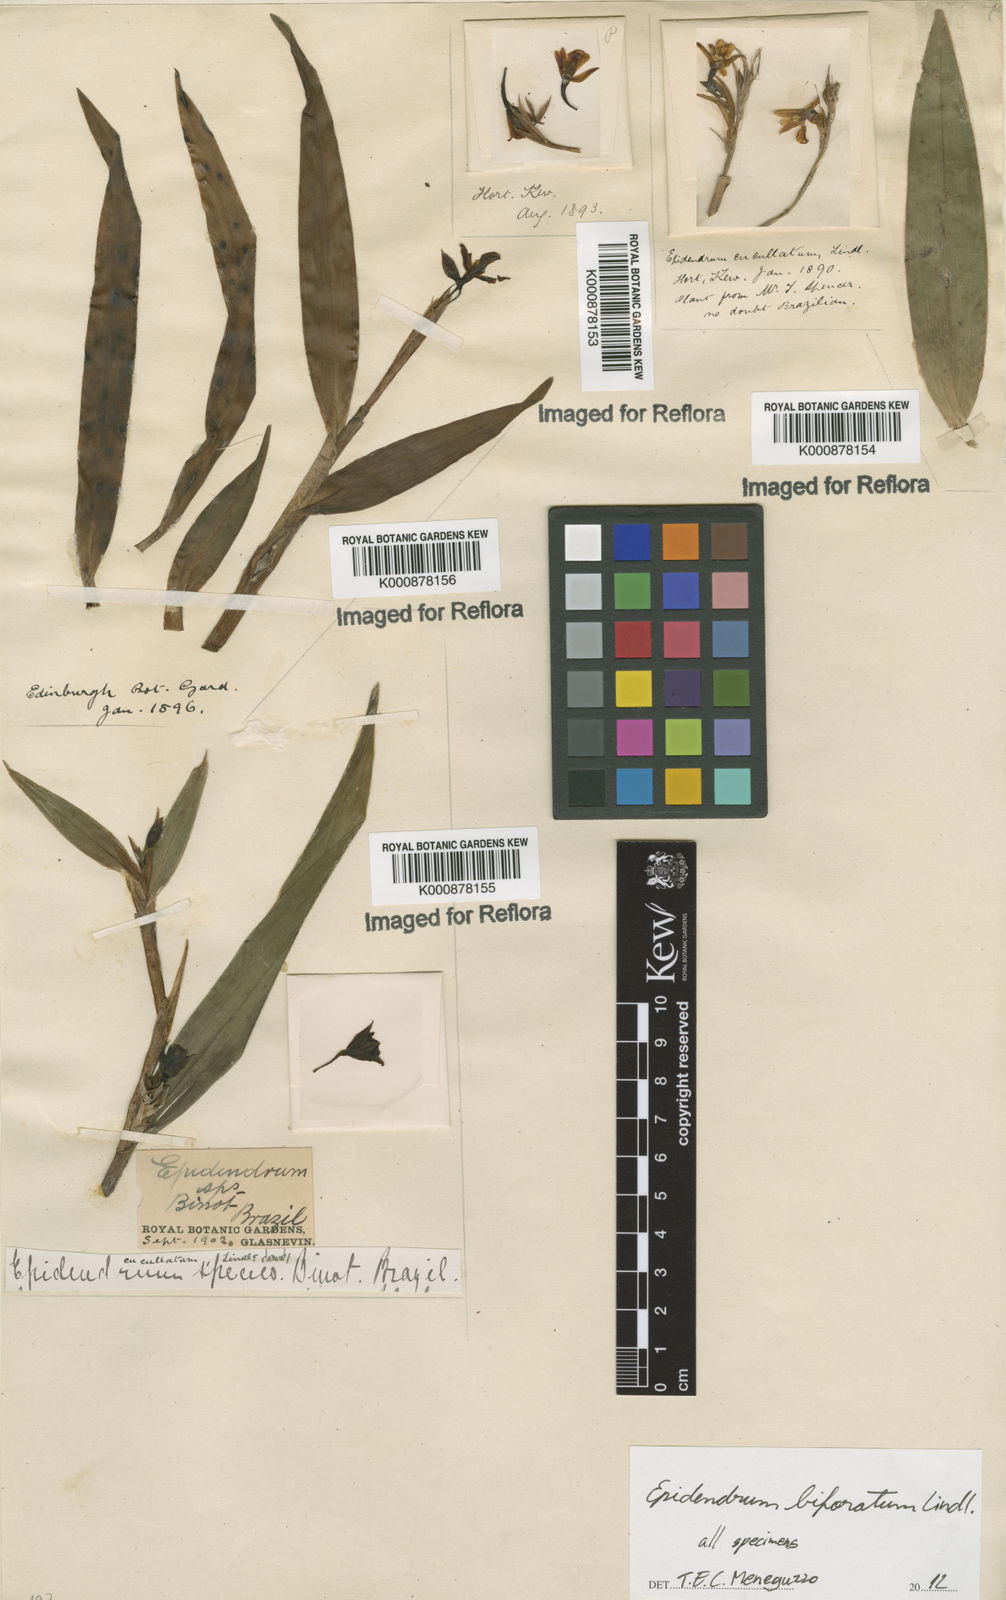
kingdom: Plantae
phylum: Tracheophyta
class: Liliopsida
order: Asparagales
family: Orchidaceae
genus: Epidendrum
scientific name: Epidendrum biforatum
